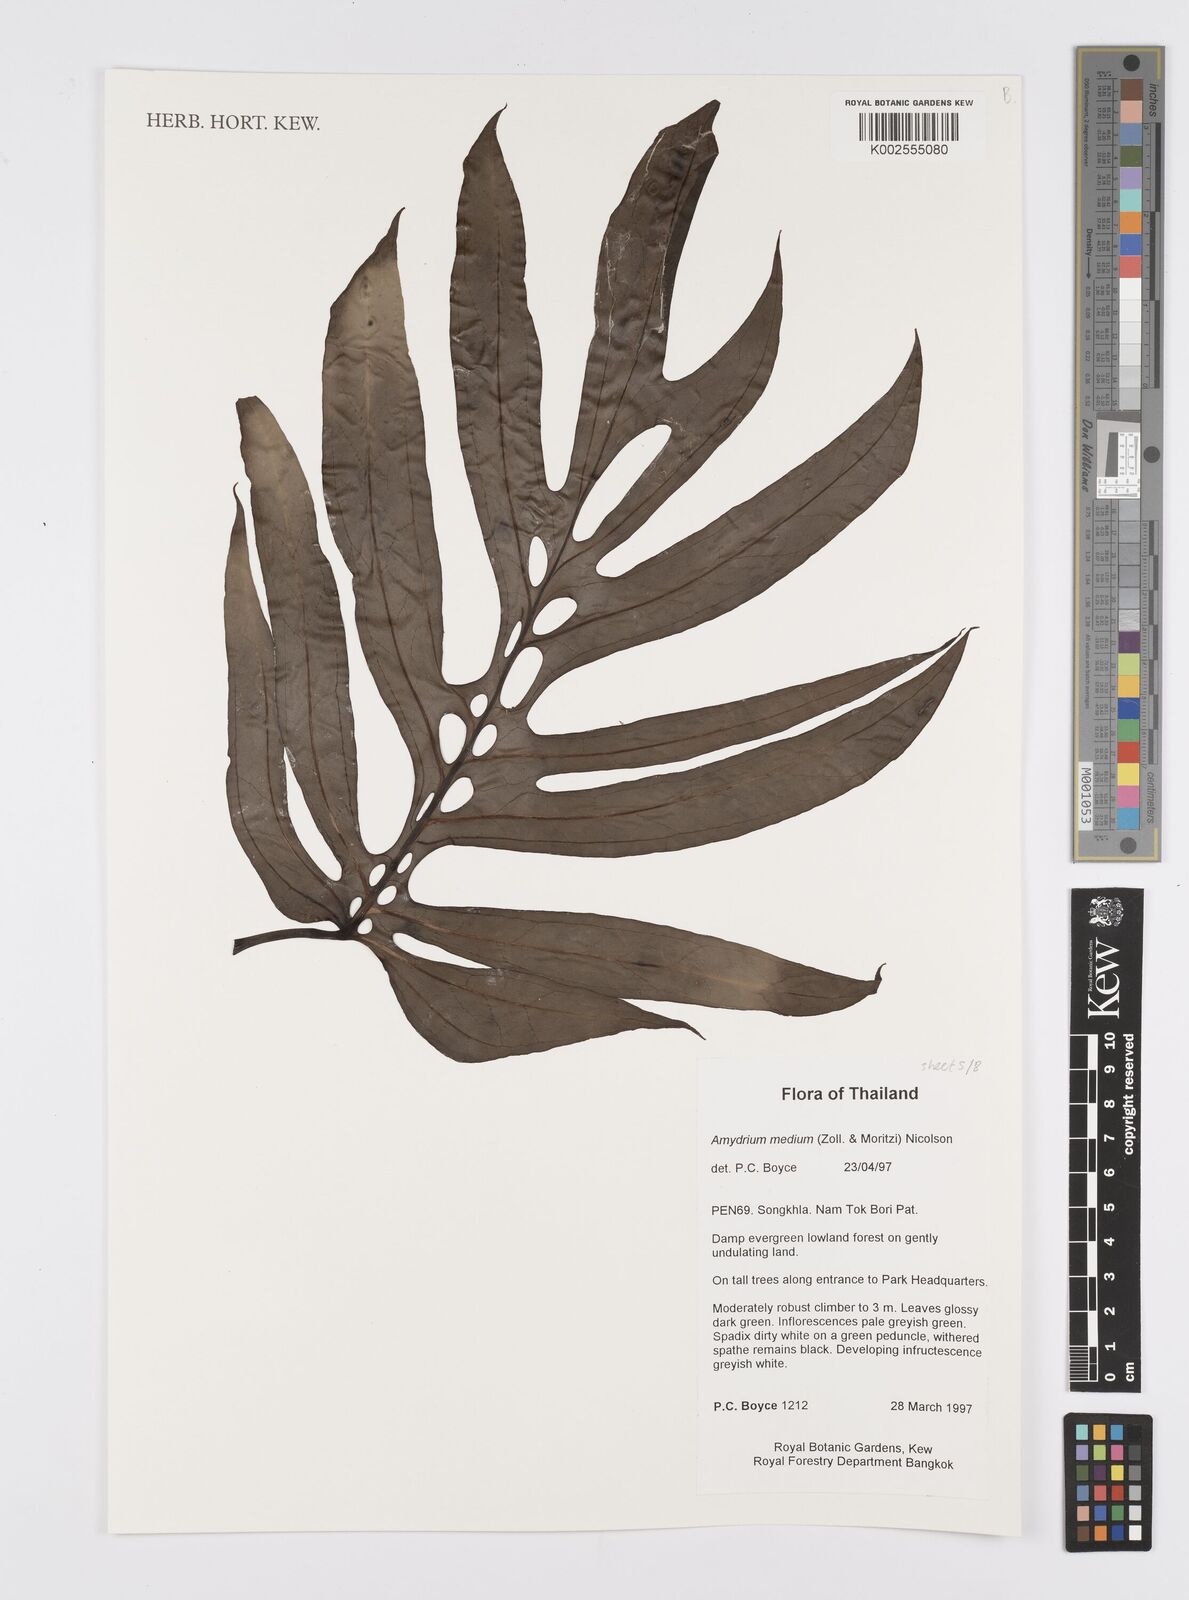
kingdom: Plantae
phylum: Tracheophyta
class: Liliopsida
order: Alismatales
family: Araceae
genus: Amydrium
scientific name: Amydrium medium
